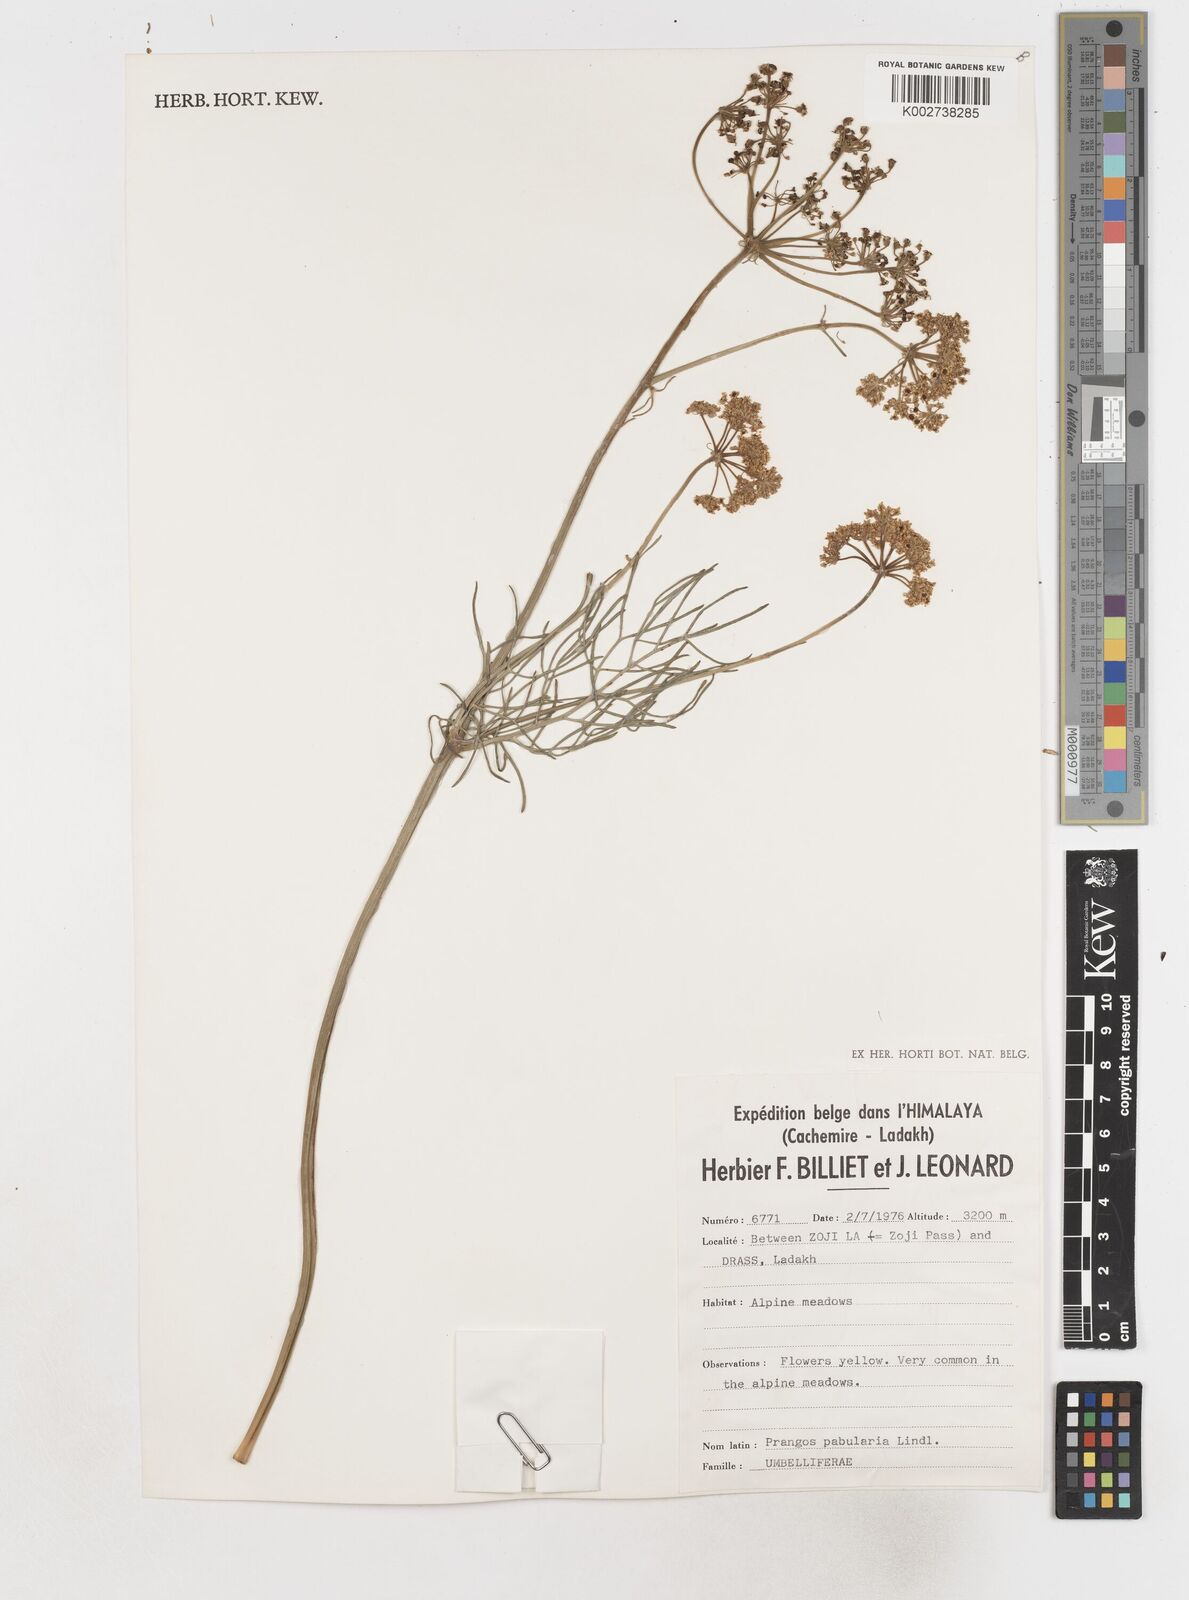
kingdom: Plantae
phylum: Tracheophyta
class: Magnoliopsida
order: Apiales
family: Apiaceae
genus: Prangos
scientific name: Prangos
